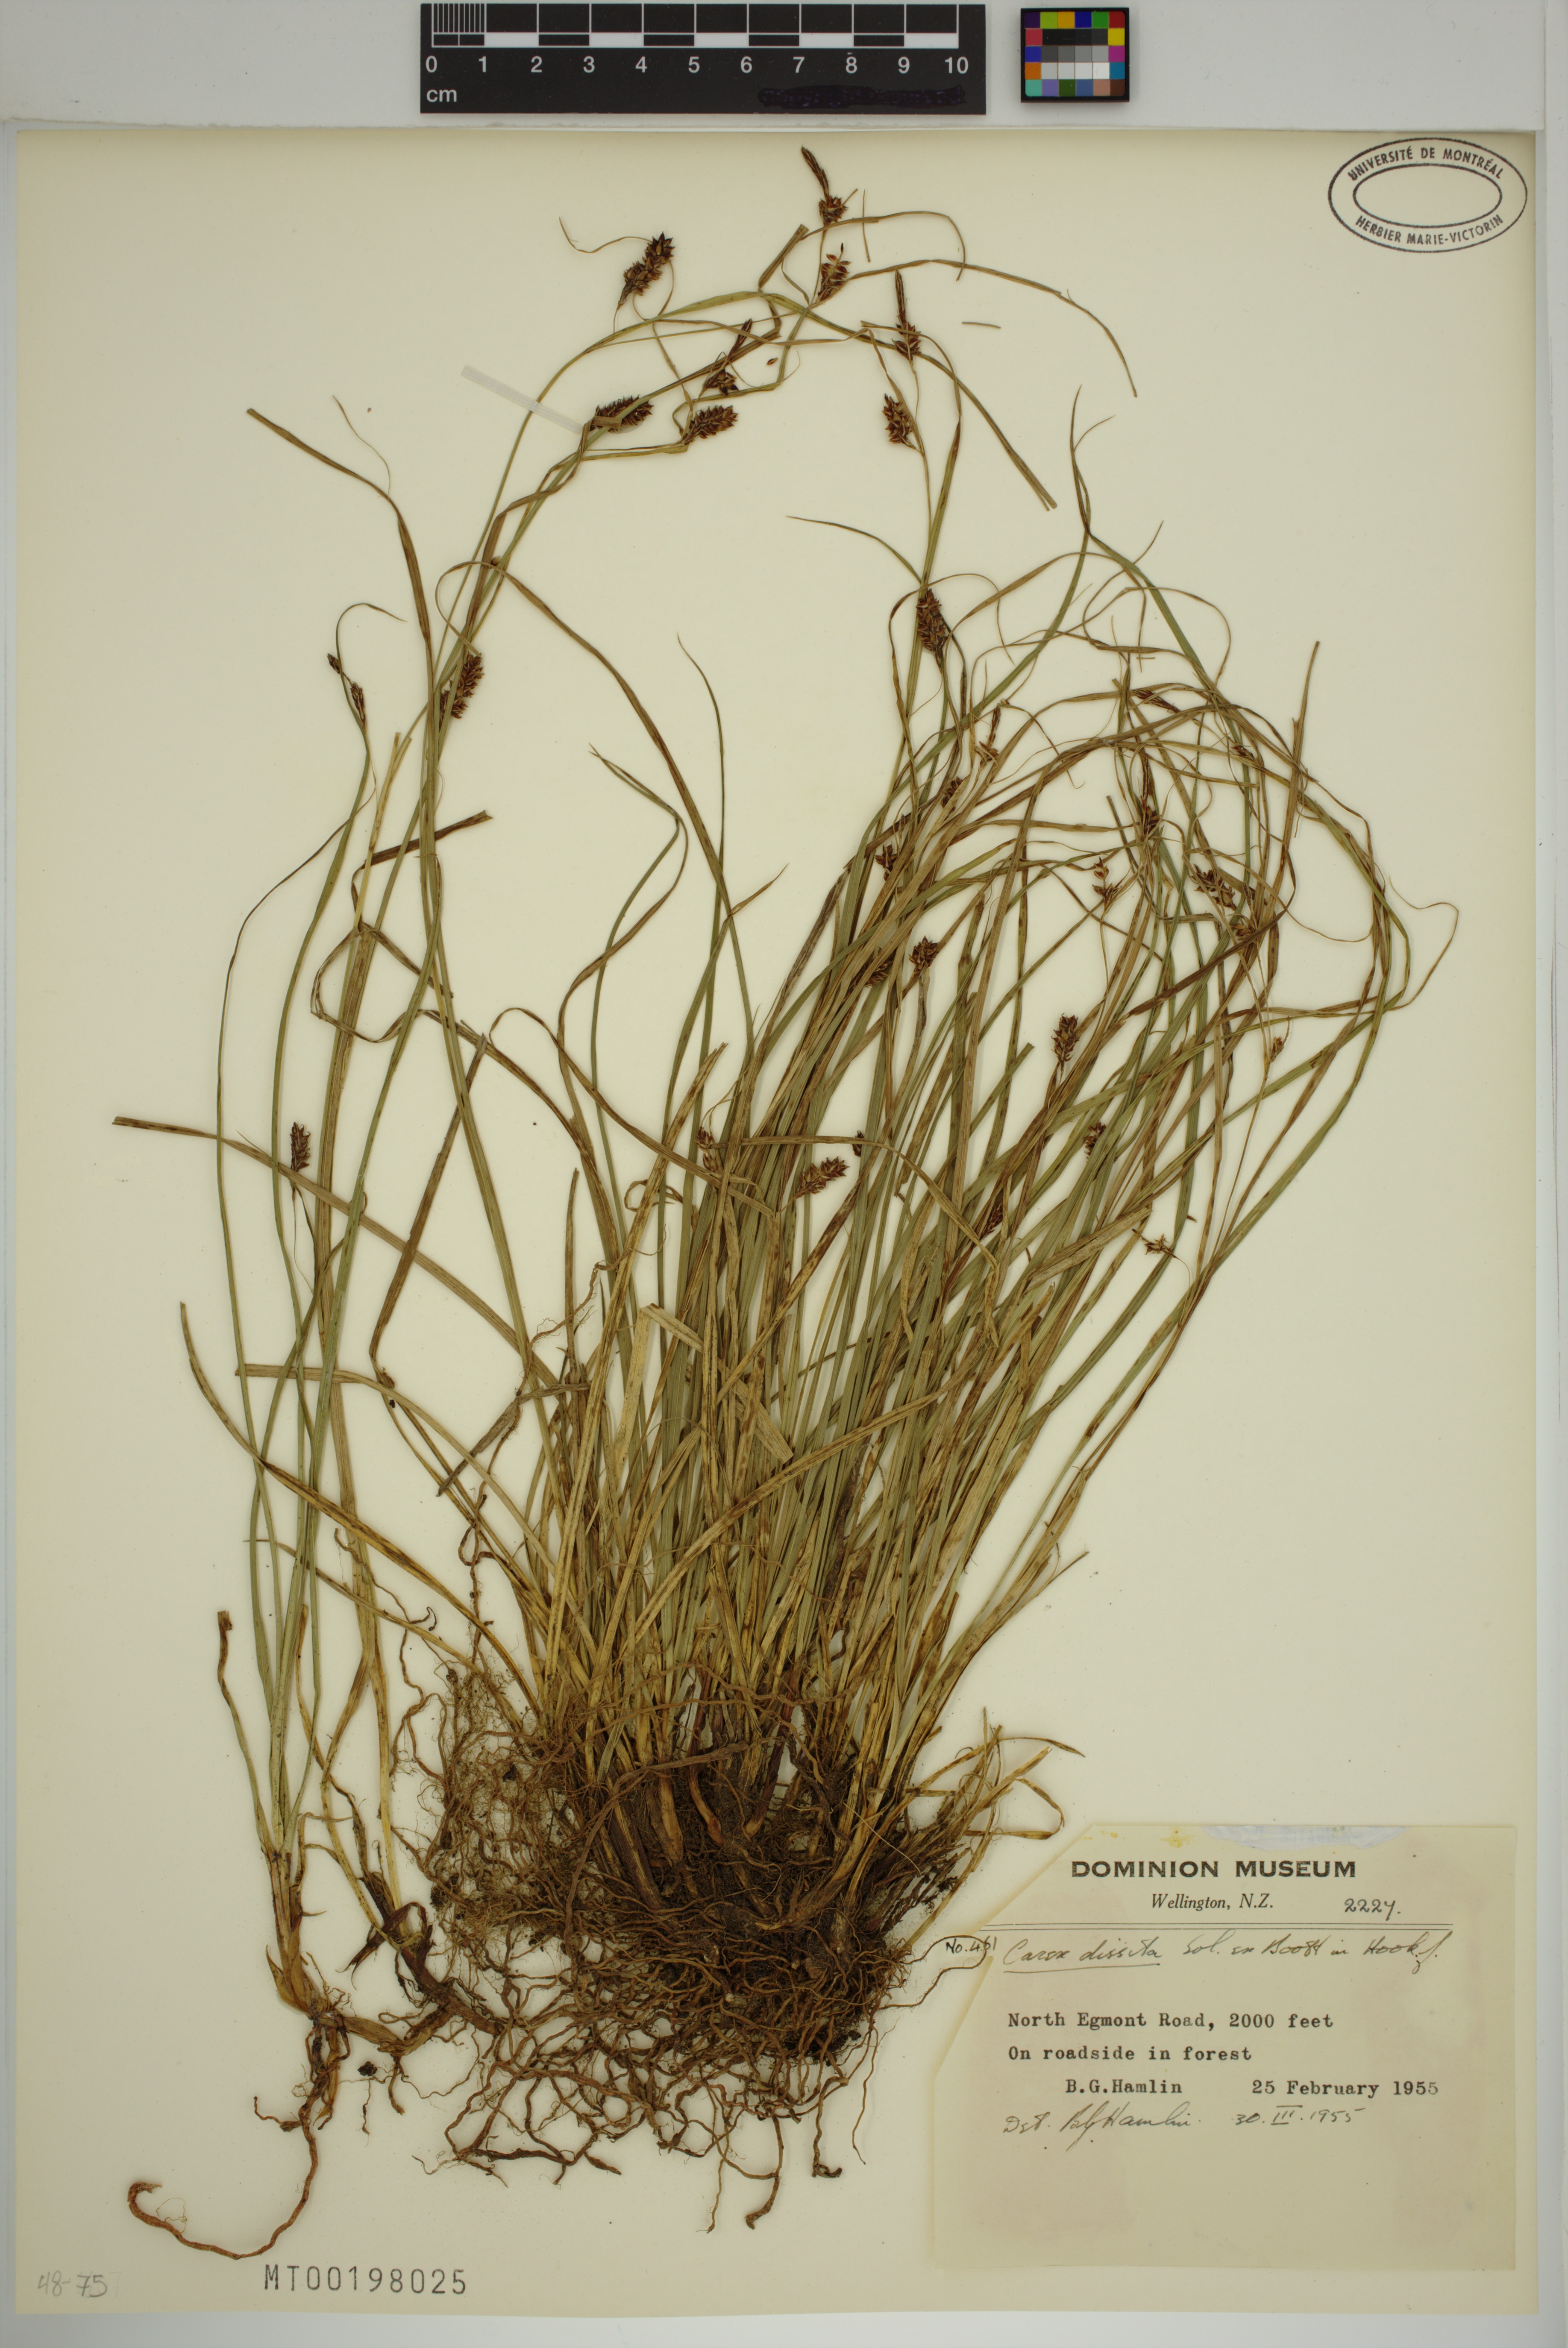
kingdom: Plantae
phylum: Tracheophyta
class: Liliopsida
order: Poales
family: Cyperaceae
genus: Carex
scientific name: Carex dissita
